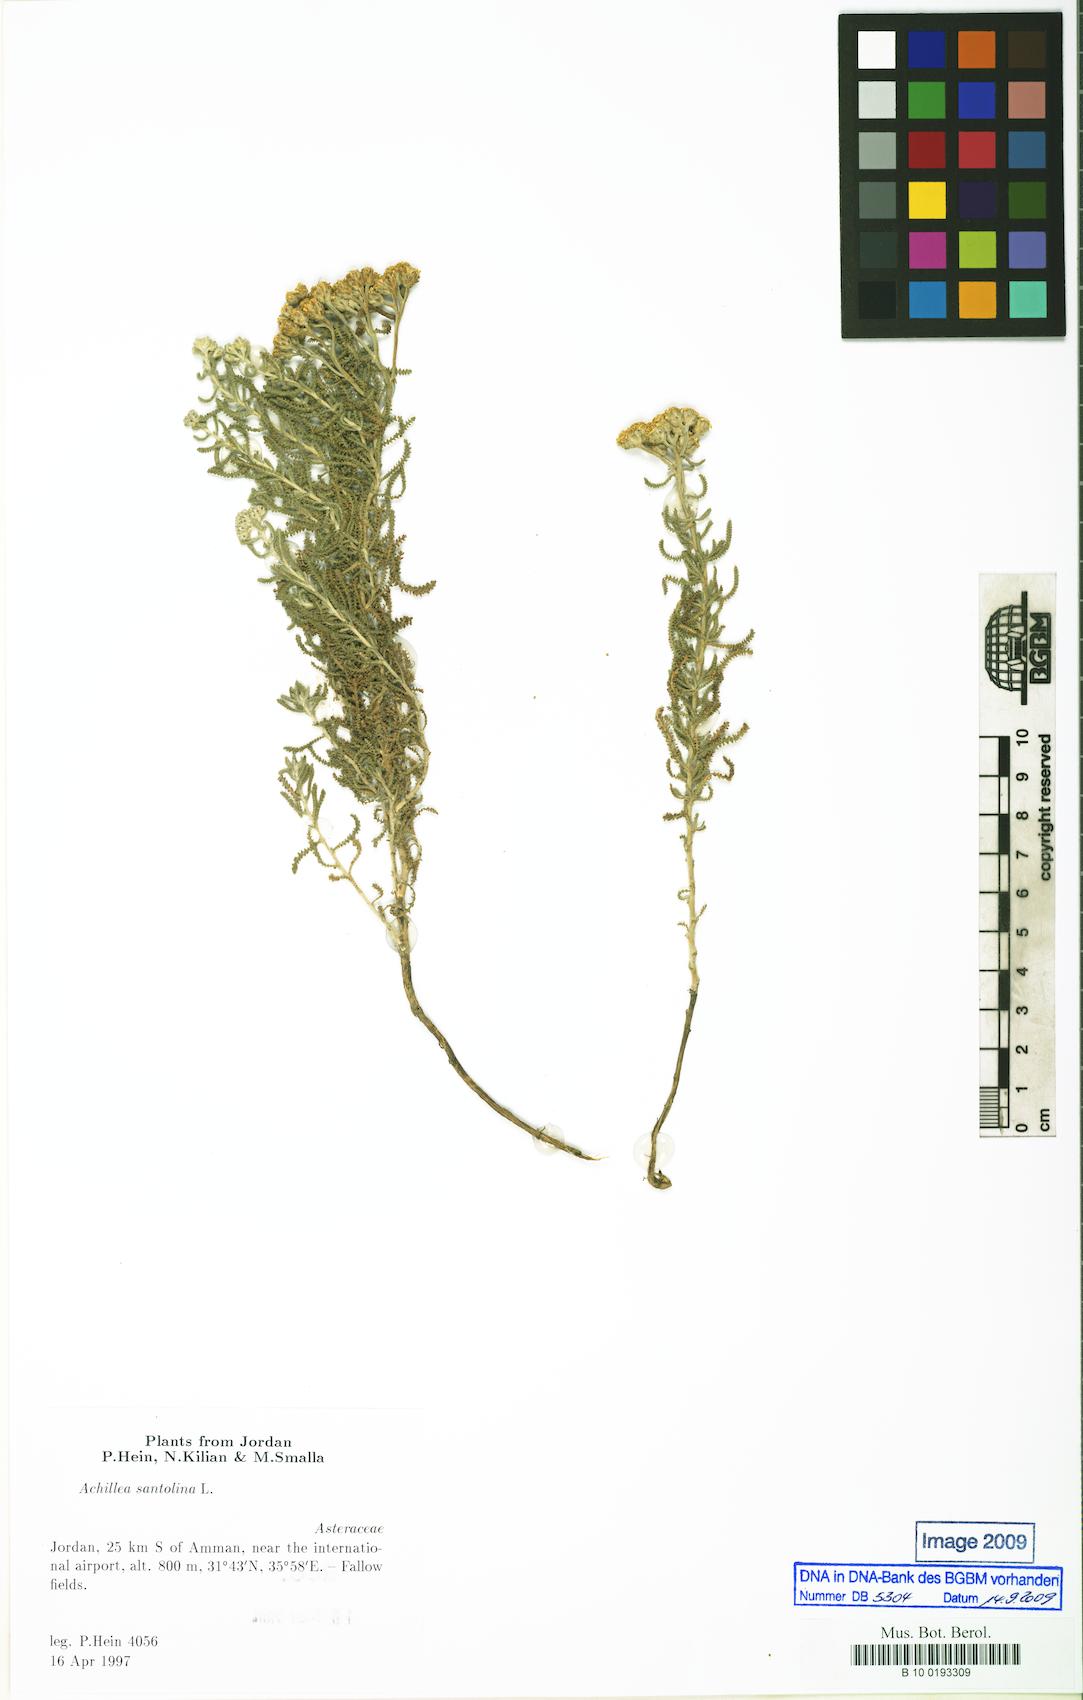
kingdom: Plantae
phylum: Tracheophyta
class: Magnoliopsida
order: Asterales
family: Asteraceae
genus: Achillea
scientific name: Achillea tenuifolia
